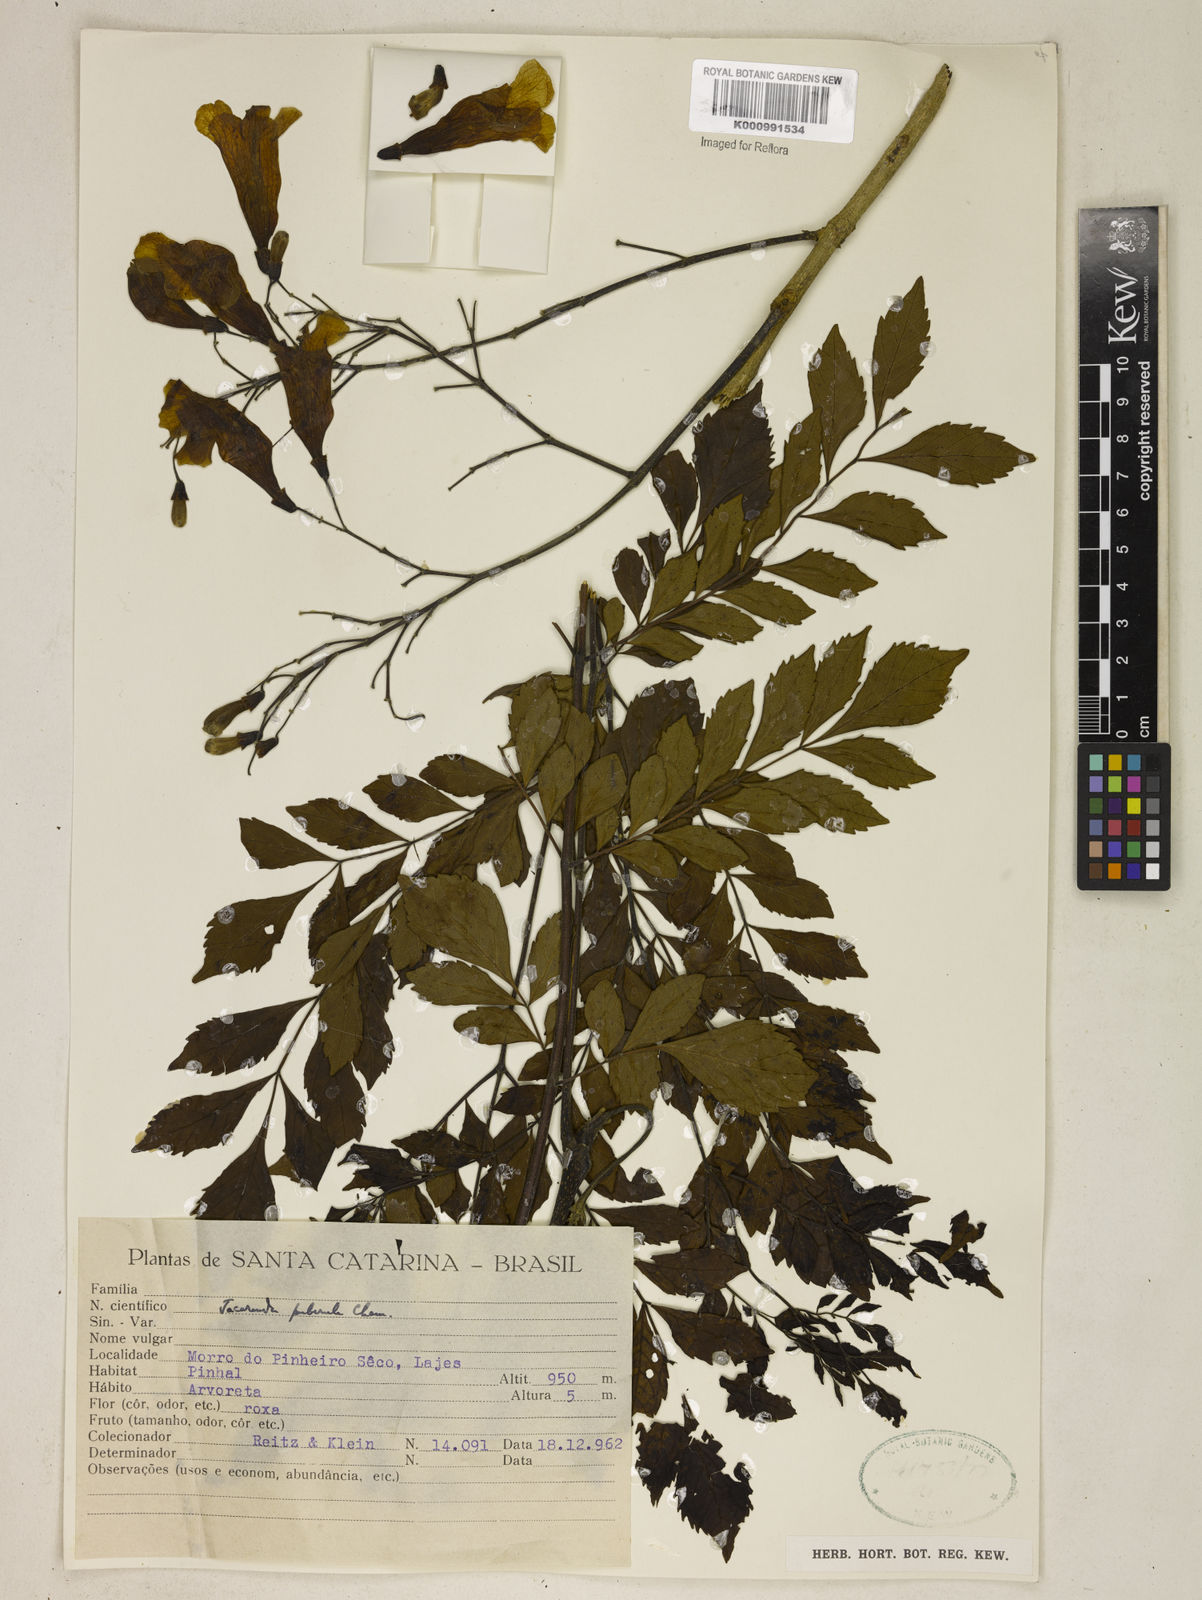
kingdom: Plantae
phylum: Tracheophyta
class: Magnoliopsida
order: Lamiales
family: Bignoniaceae
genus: Jacaranda
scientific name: Jacaranda puberula
